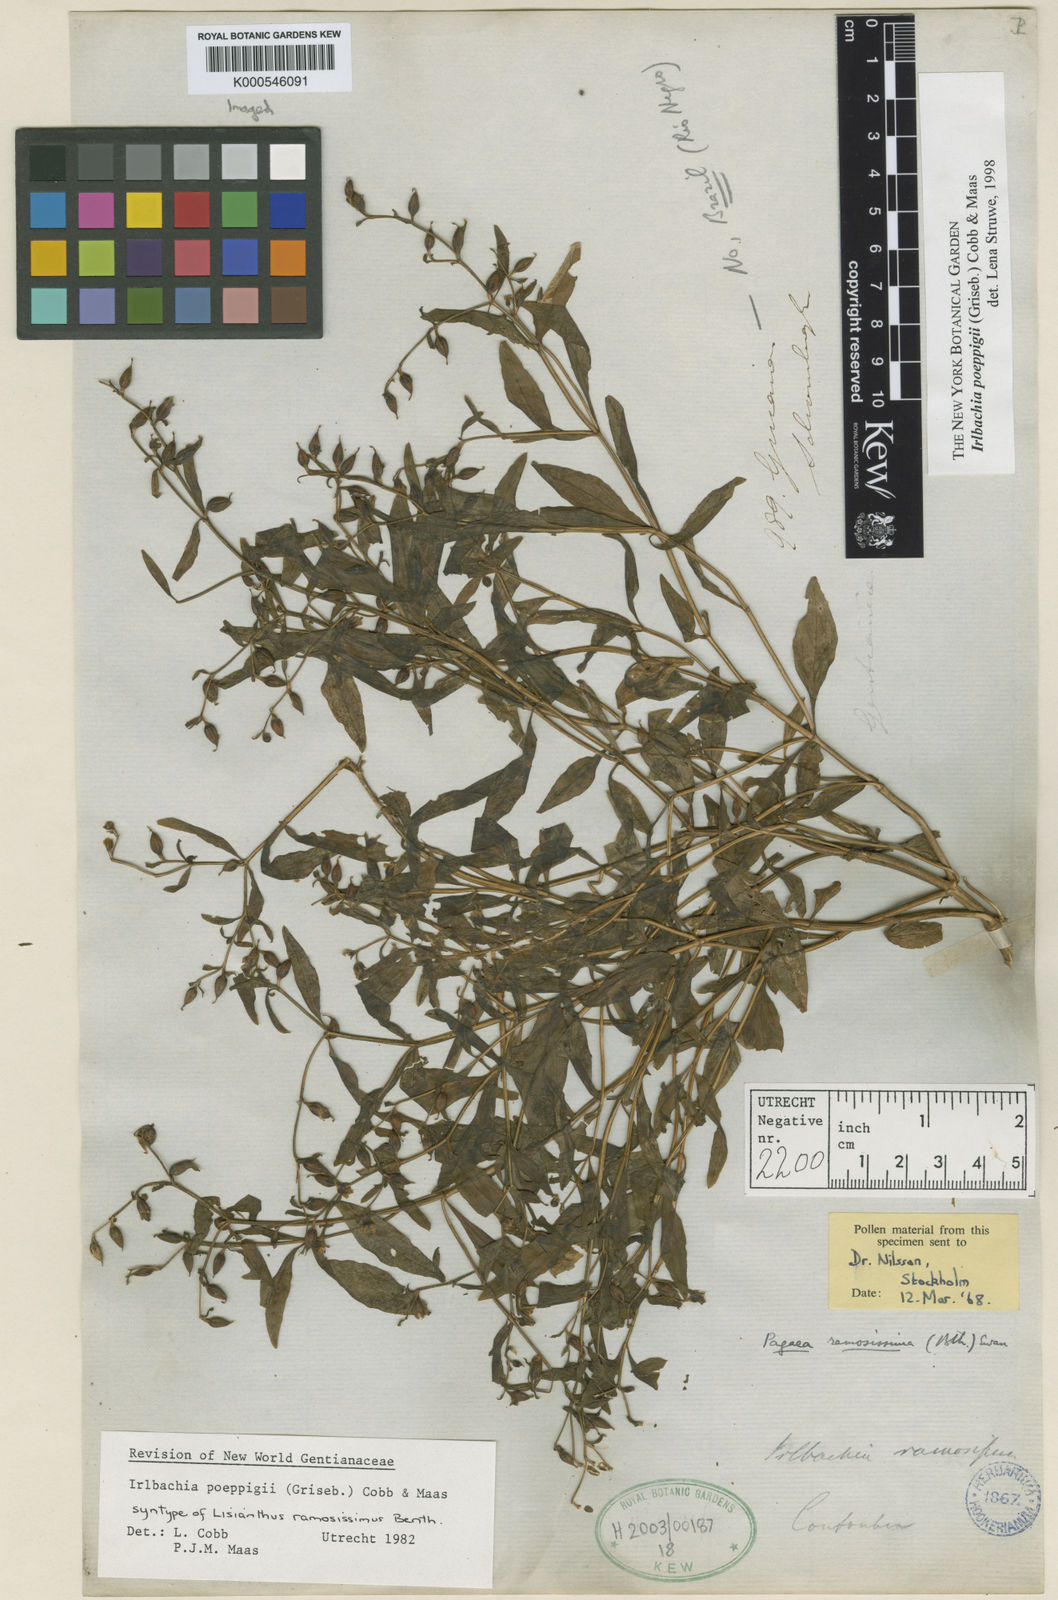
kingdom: Plantae
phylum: Tracheophyta
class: Magnoliopsida
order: Gentianales
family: Gentianaceae
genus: Irlbachia
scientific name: Irlbachia poeppigii
